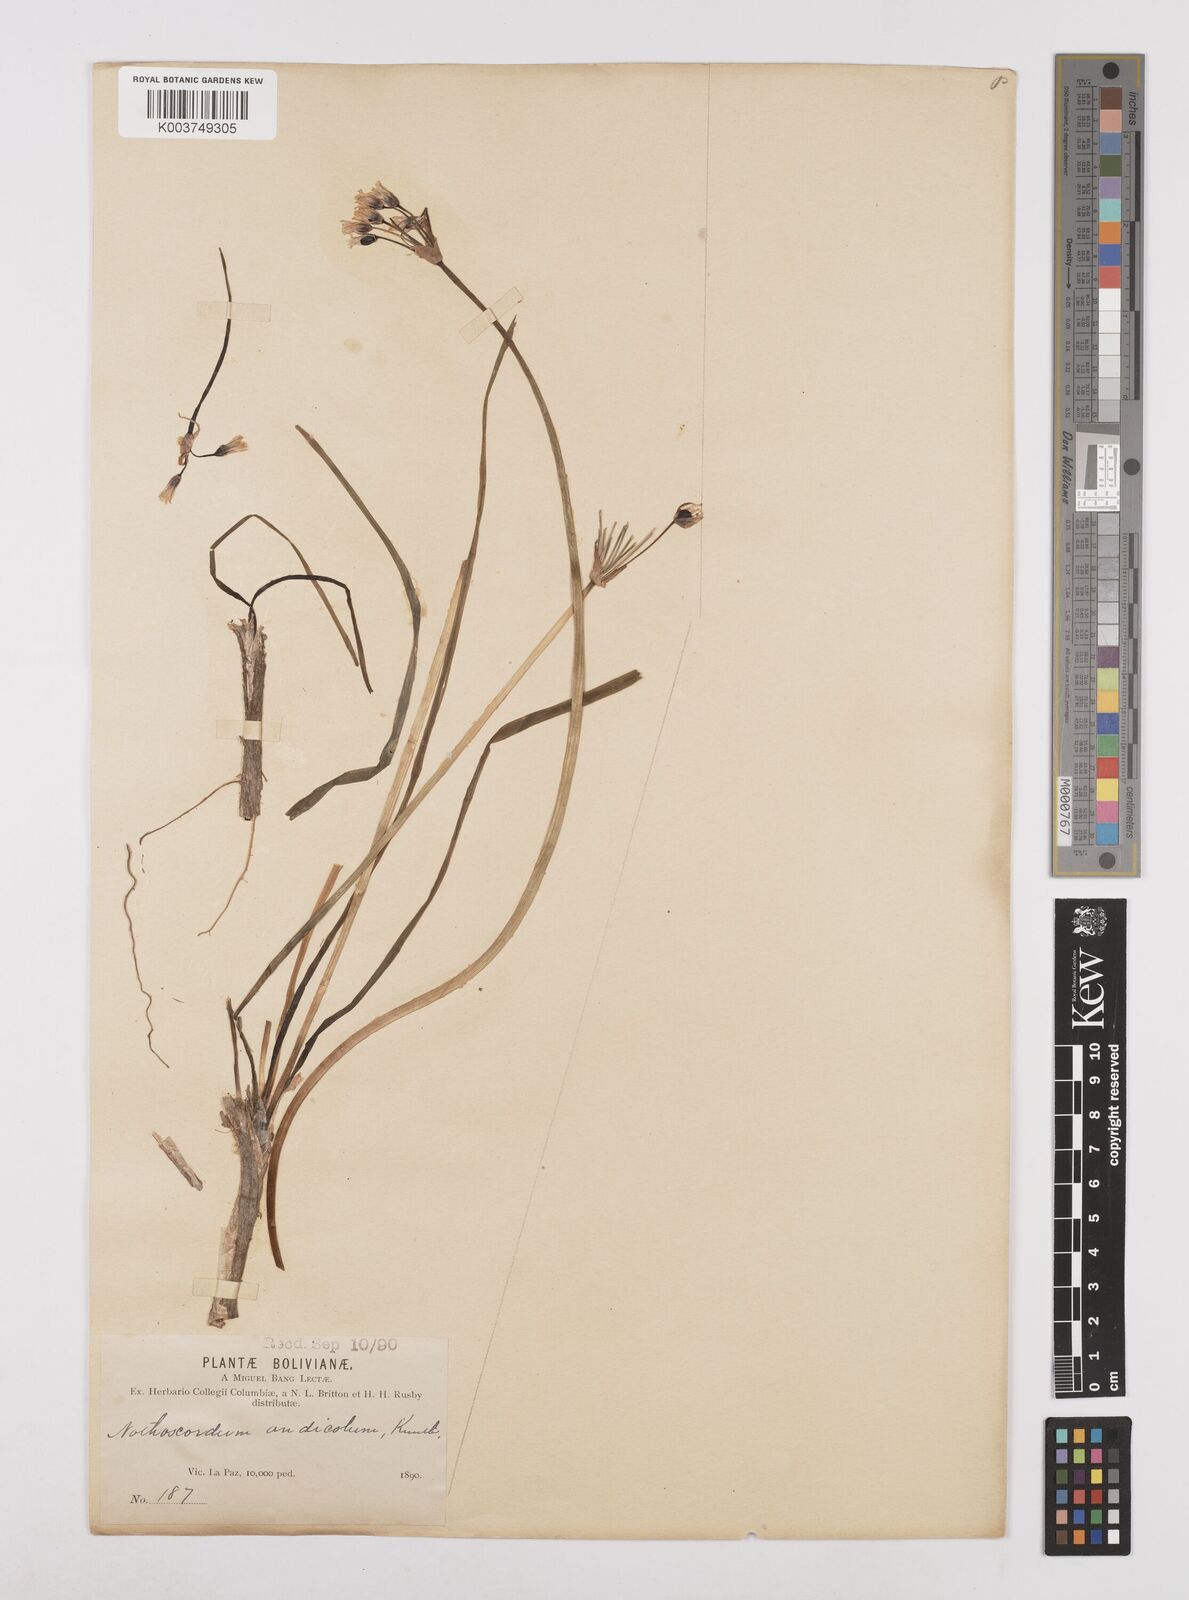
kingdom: Plantae
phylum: Tracheophyta
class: Liliopsida
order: Asparagales
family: Amaryllidaceae
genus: Nothoscordum
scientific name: Nothoscordum andicola
